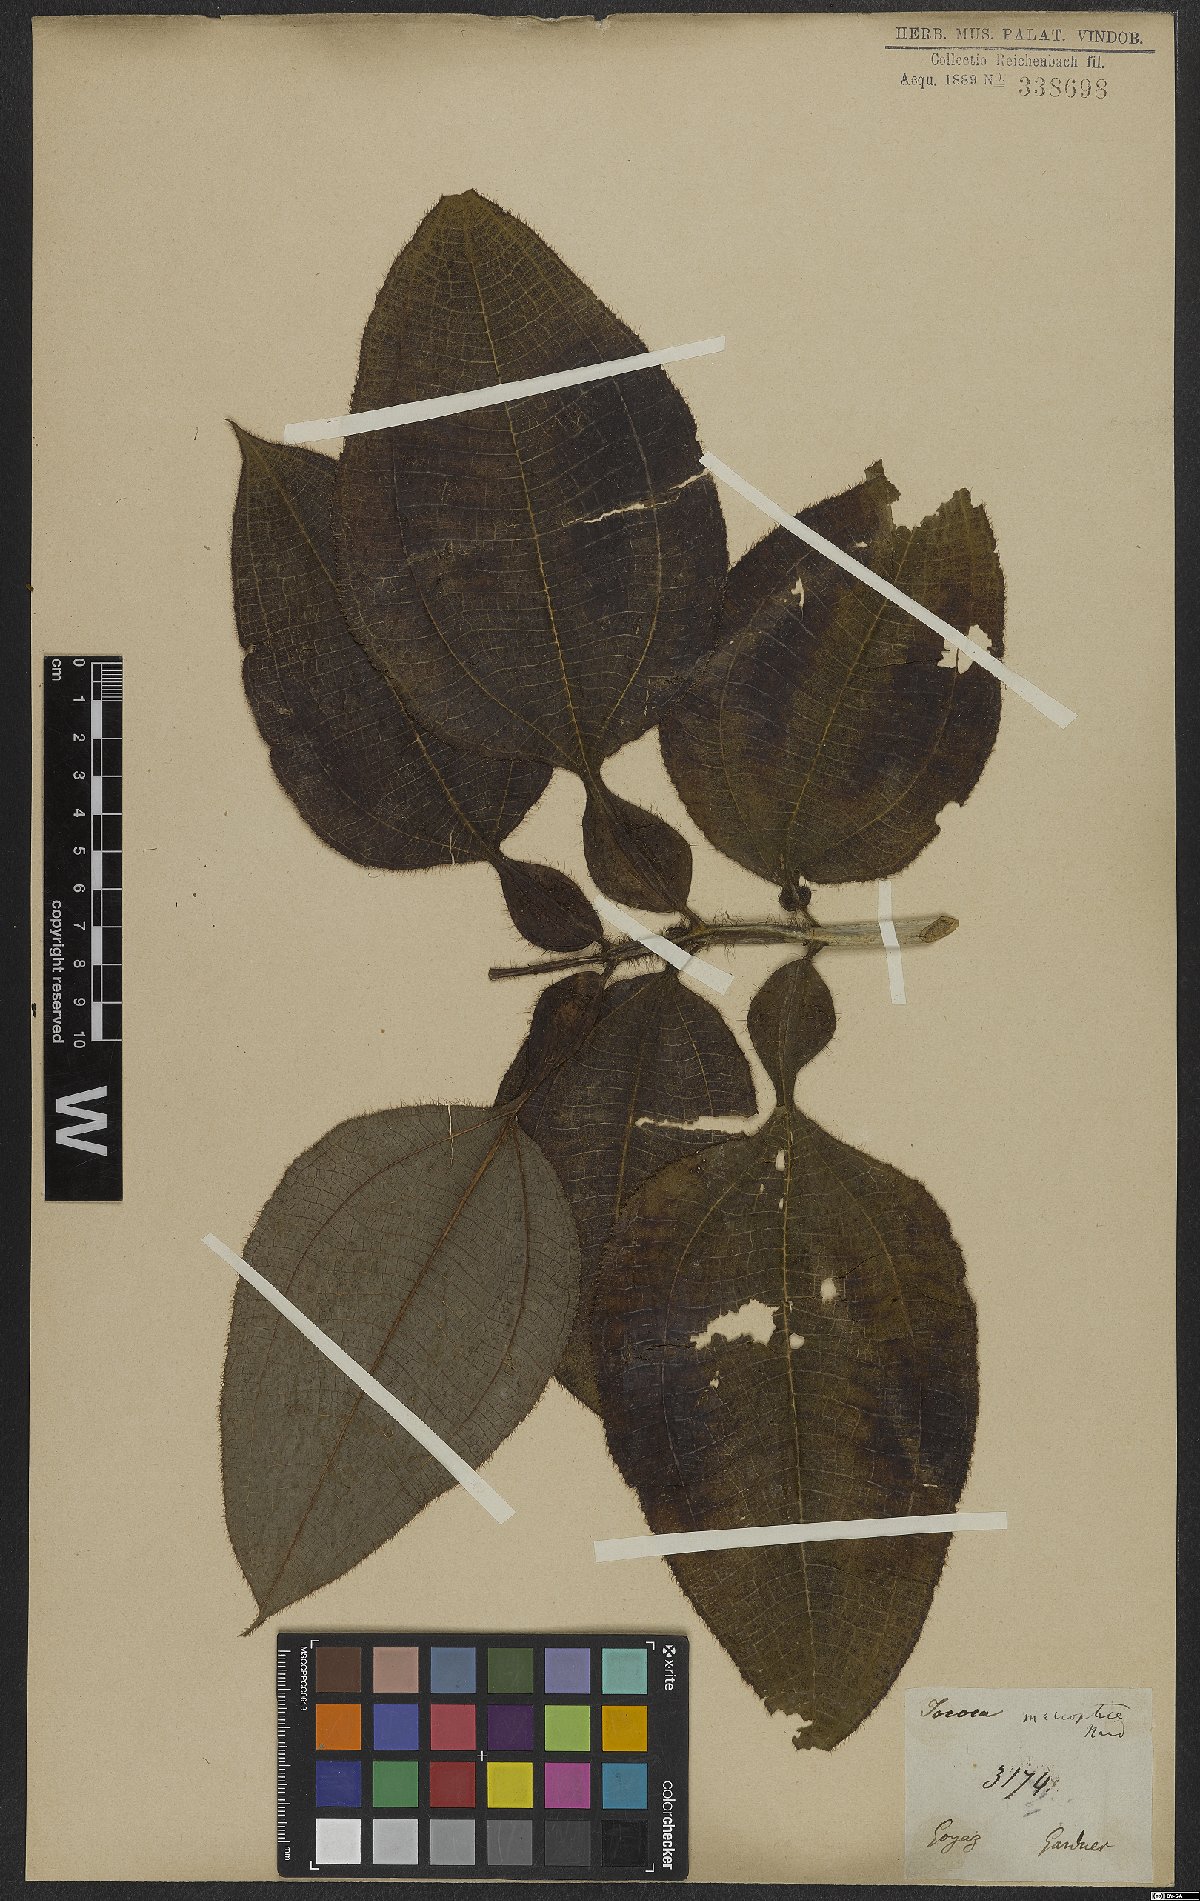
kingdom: Plantae
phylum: Tracheophyta
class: Magnoliopsida
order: Myrtales
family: Melastomataceae
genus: Miconia
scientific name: Miconia macroptera
